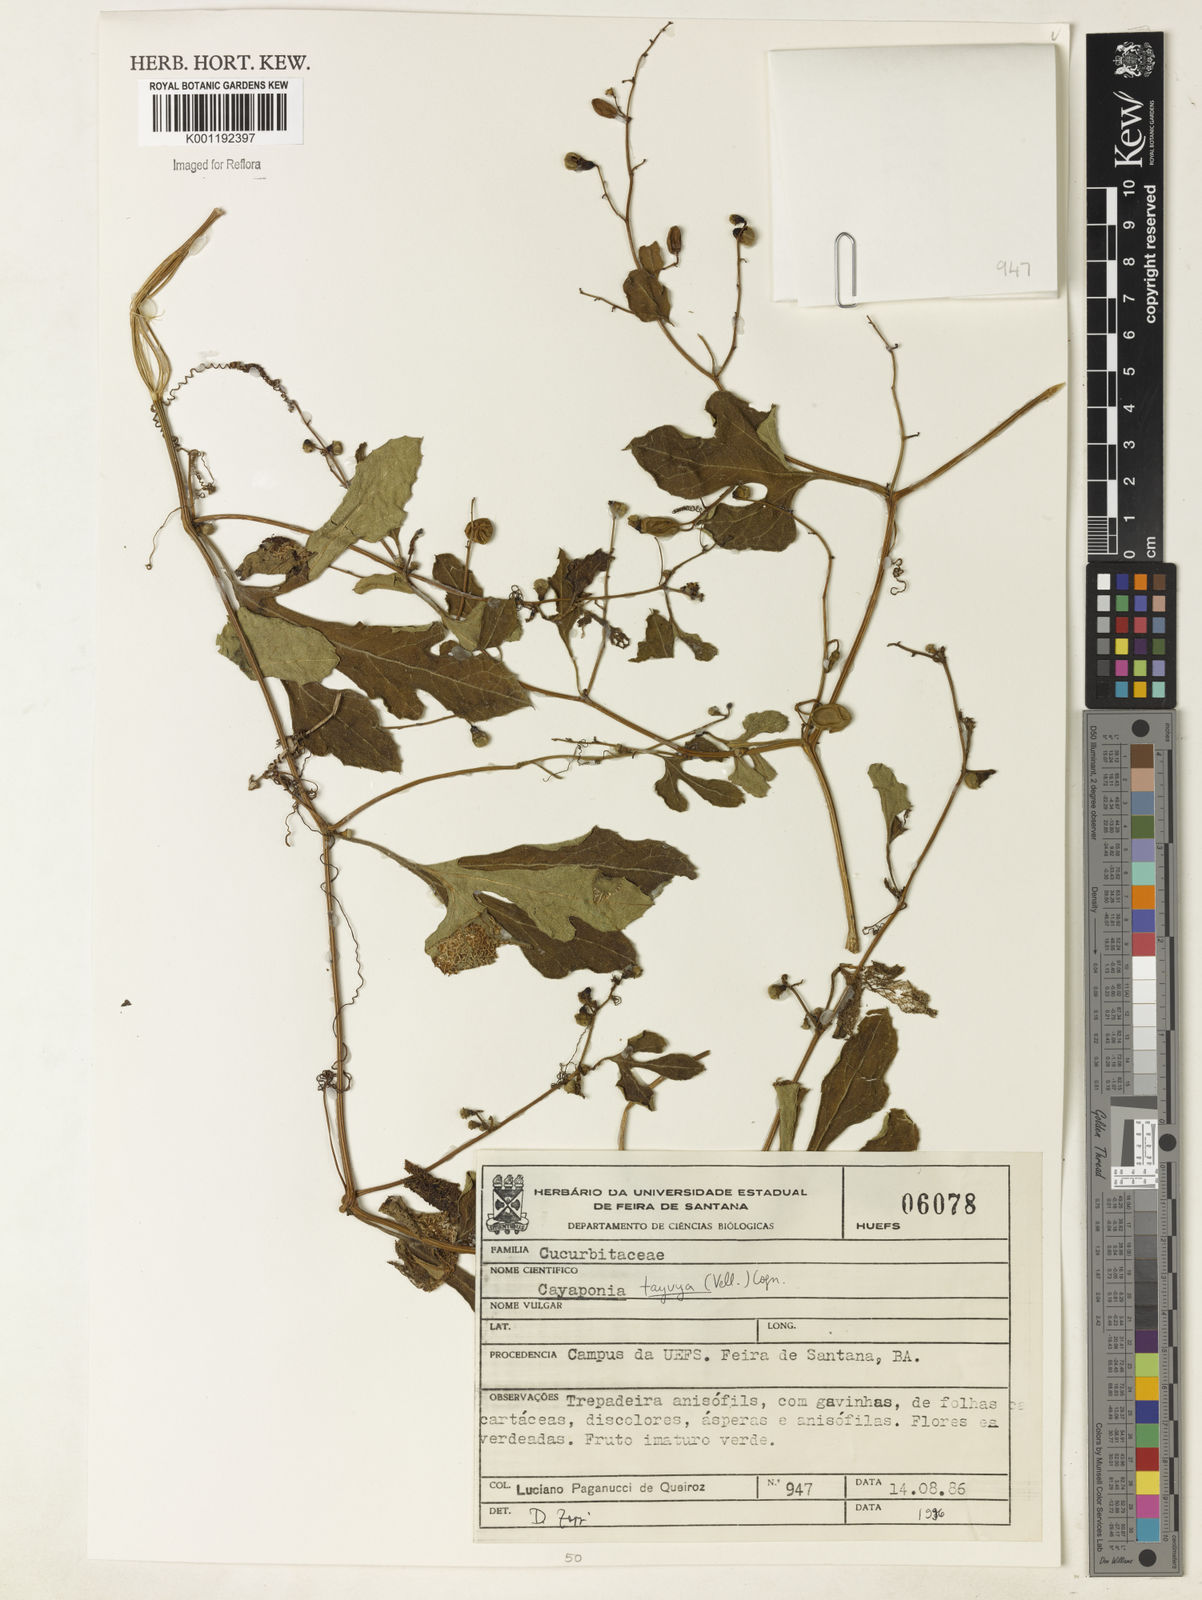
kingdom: Plantae
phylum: Tracheophyta
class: Magnoliopsida
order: Cucurbitales
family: Cucurbitaceae
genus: Cayaponia
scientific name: Cayaponia tayuya
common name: Tayuya
